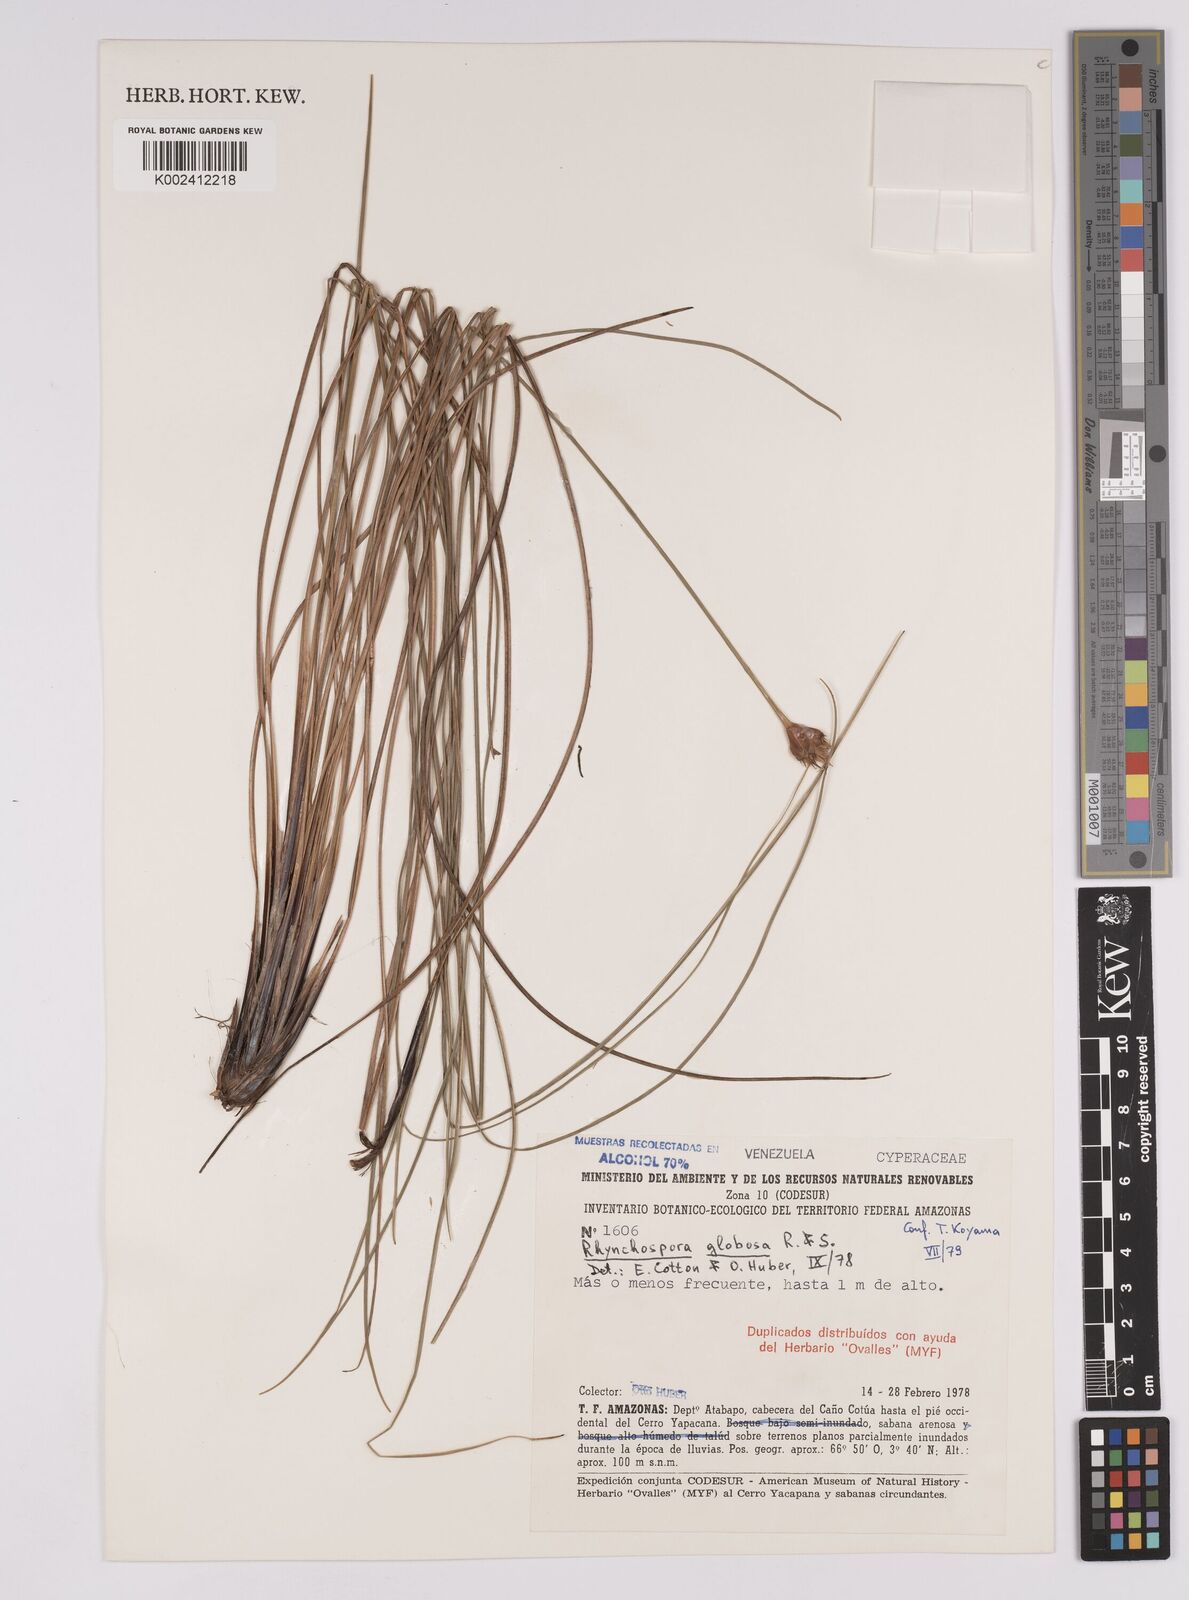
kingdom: Plantae
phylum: Tracheophyta
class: Liliopsida
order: Poales
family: Cyperaceae
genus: Rhynchospora
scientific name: Rhynchospora barbata
